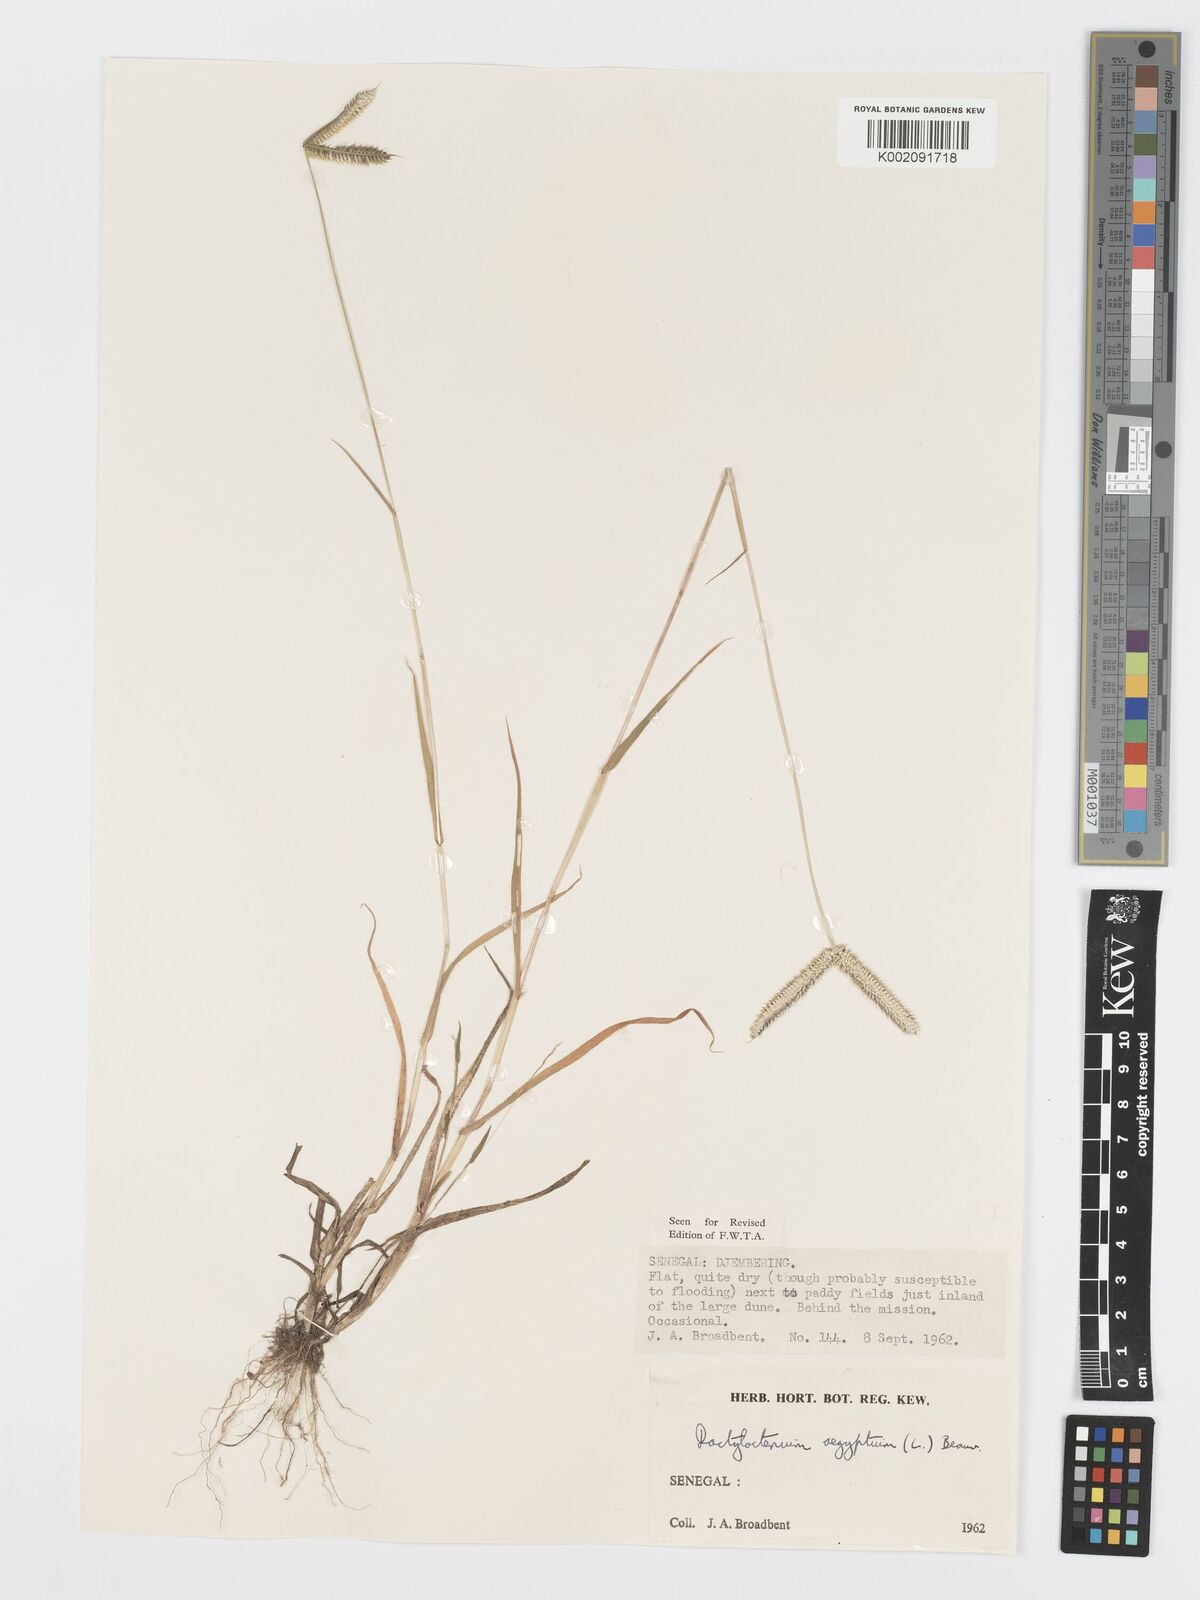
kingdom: Plantae
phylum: Tracheophyta
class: Liliopsida
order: Poales
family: Poaceae
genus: Dactyloctenium
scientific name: Dactyloctenium aegyptium
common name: Egyptian grass
